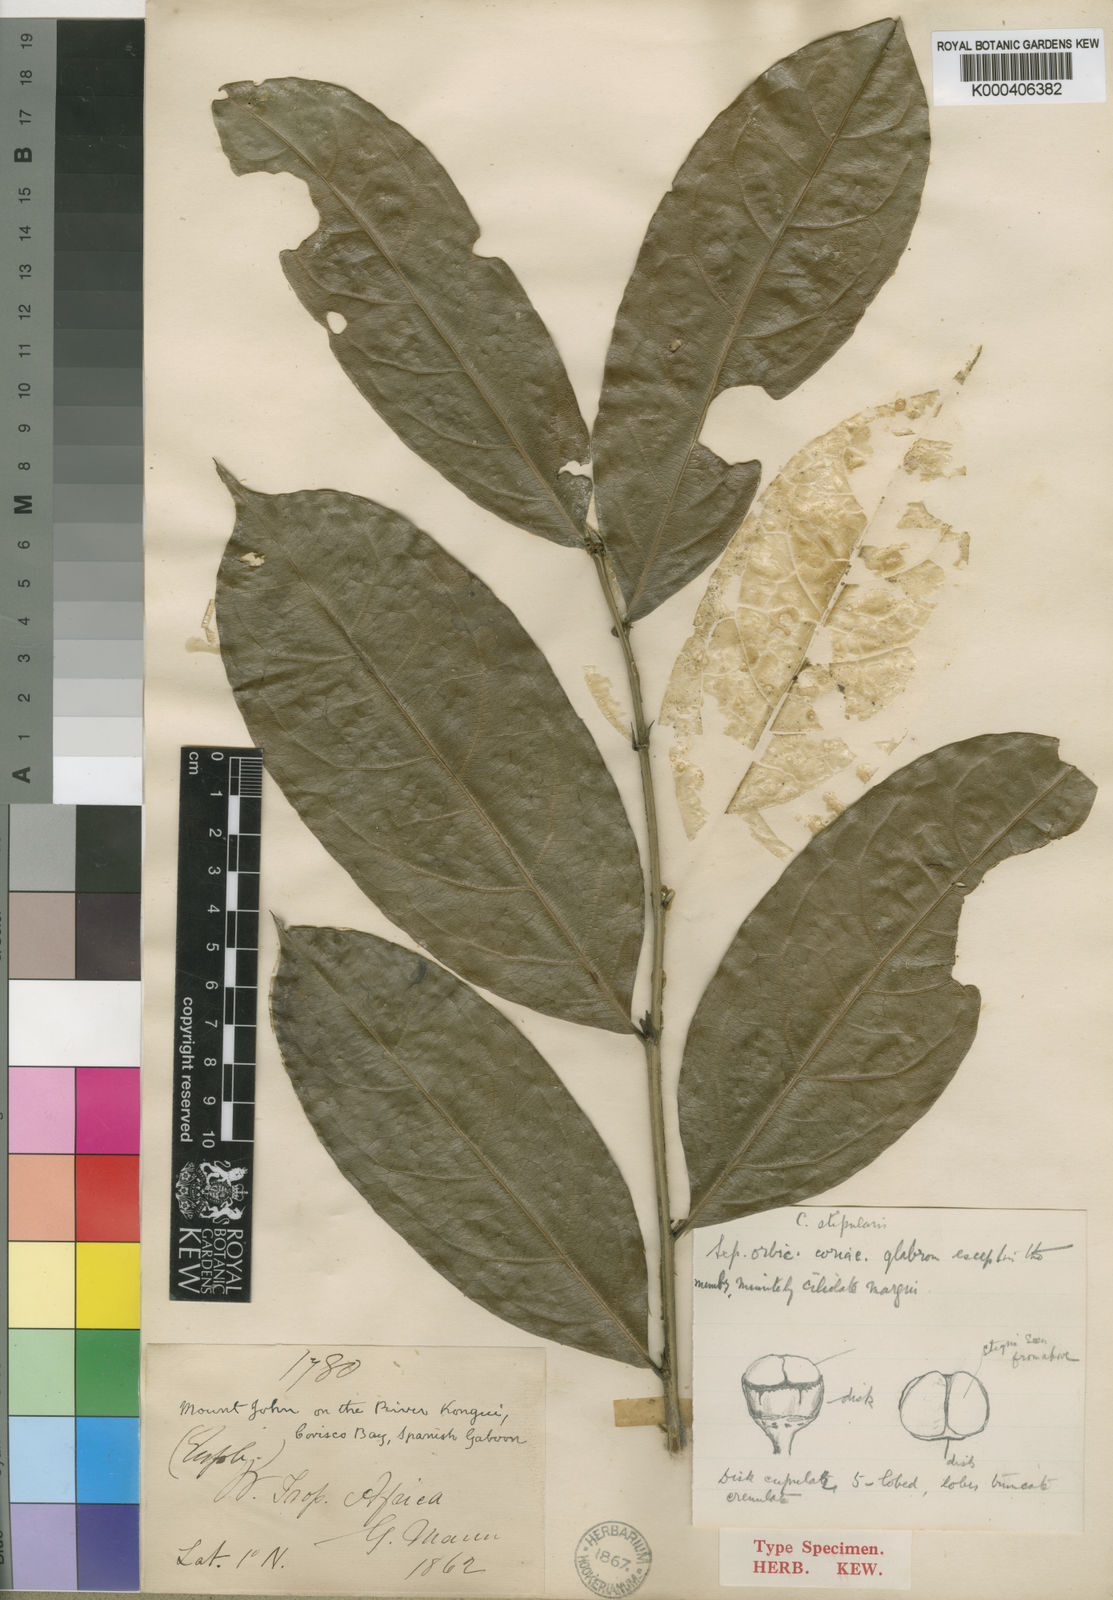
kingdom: Plantae
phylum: Tracheophyta
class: Magnoliopsida
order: Malpighiales
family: Putranjivaceae
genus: Drypetes
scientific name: Drypetes
